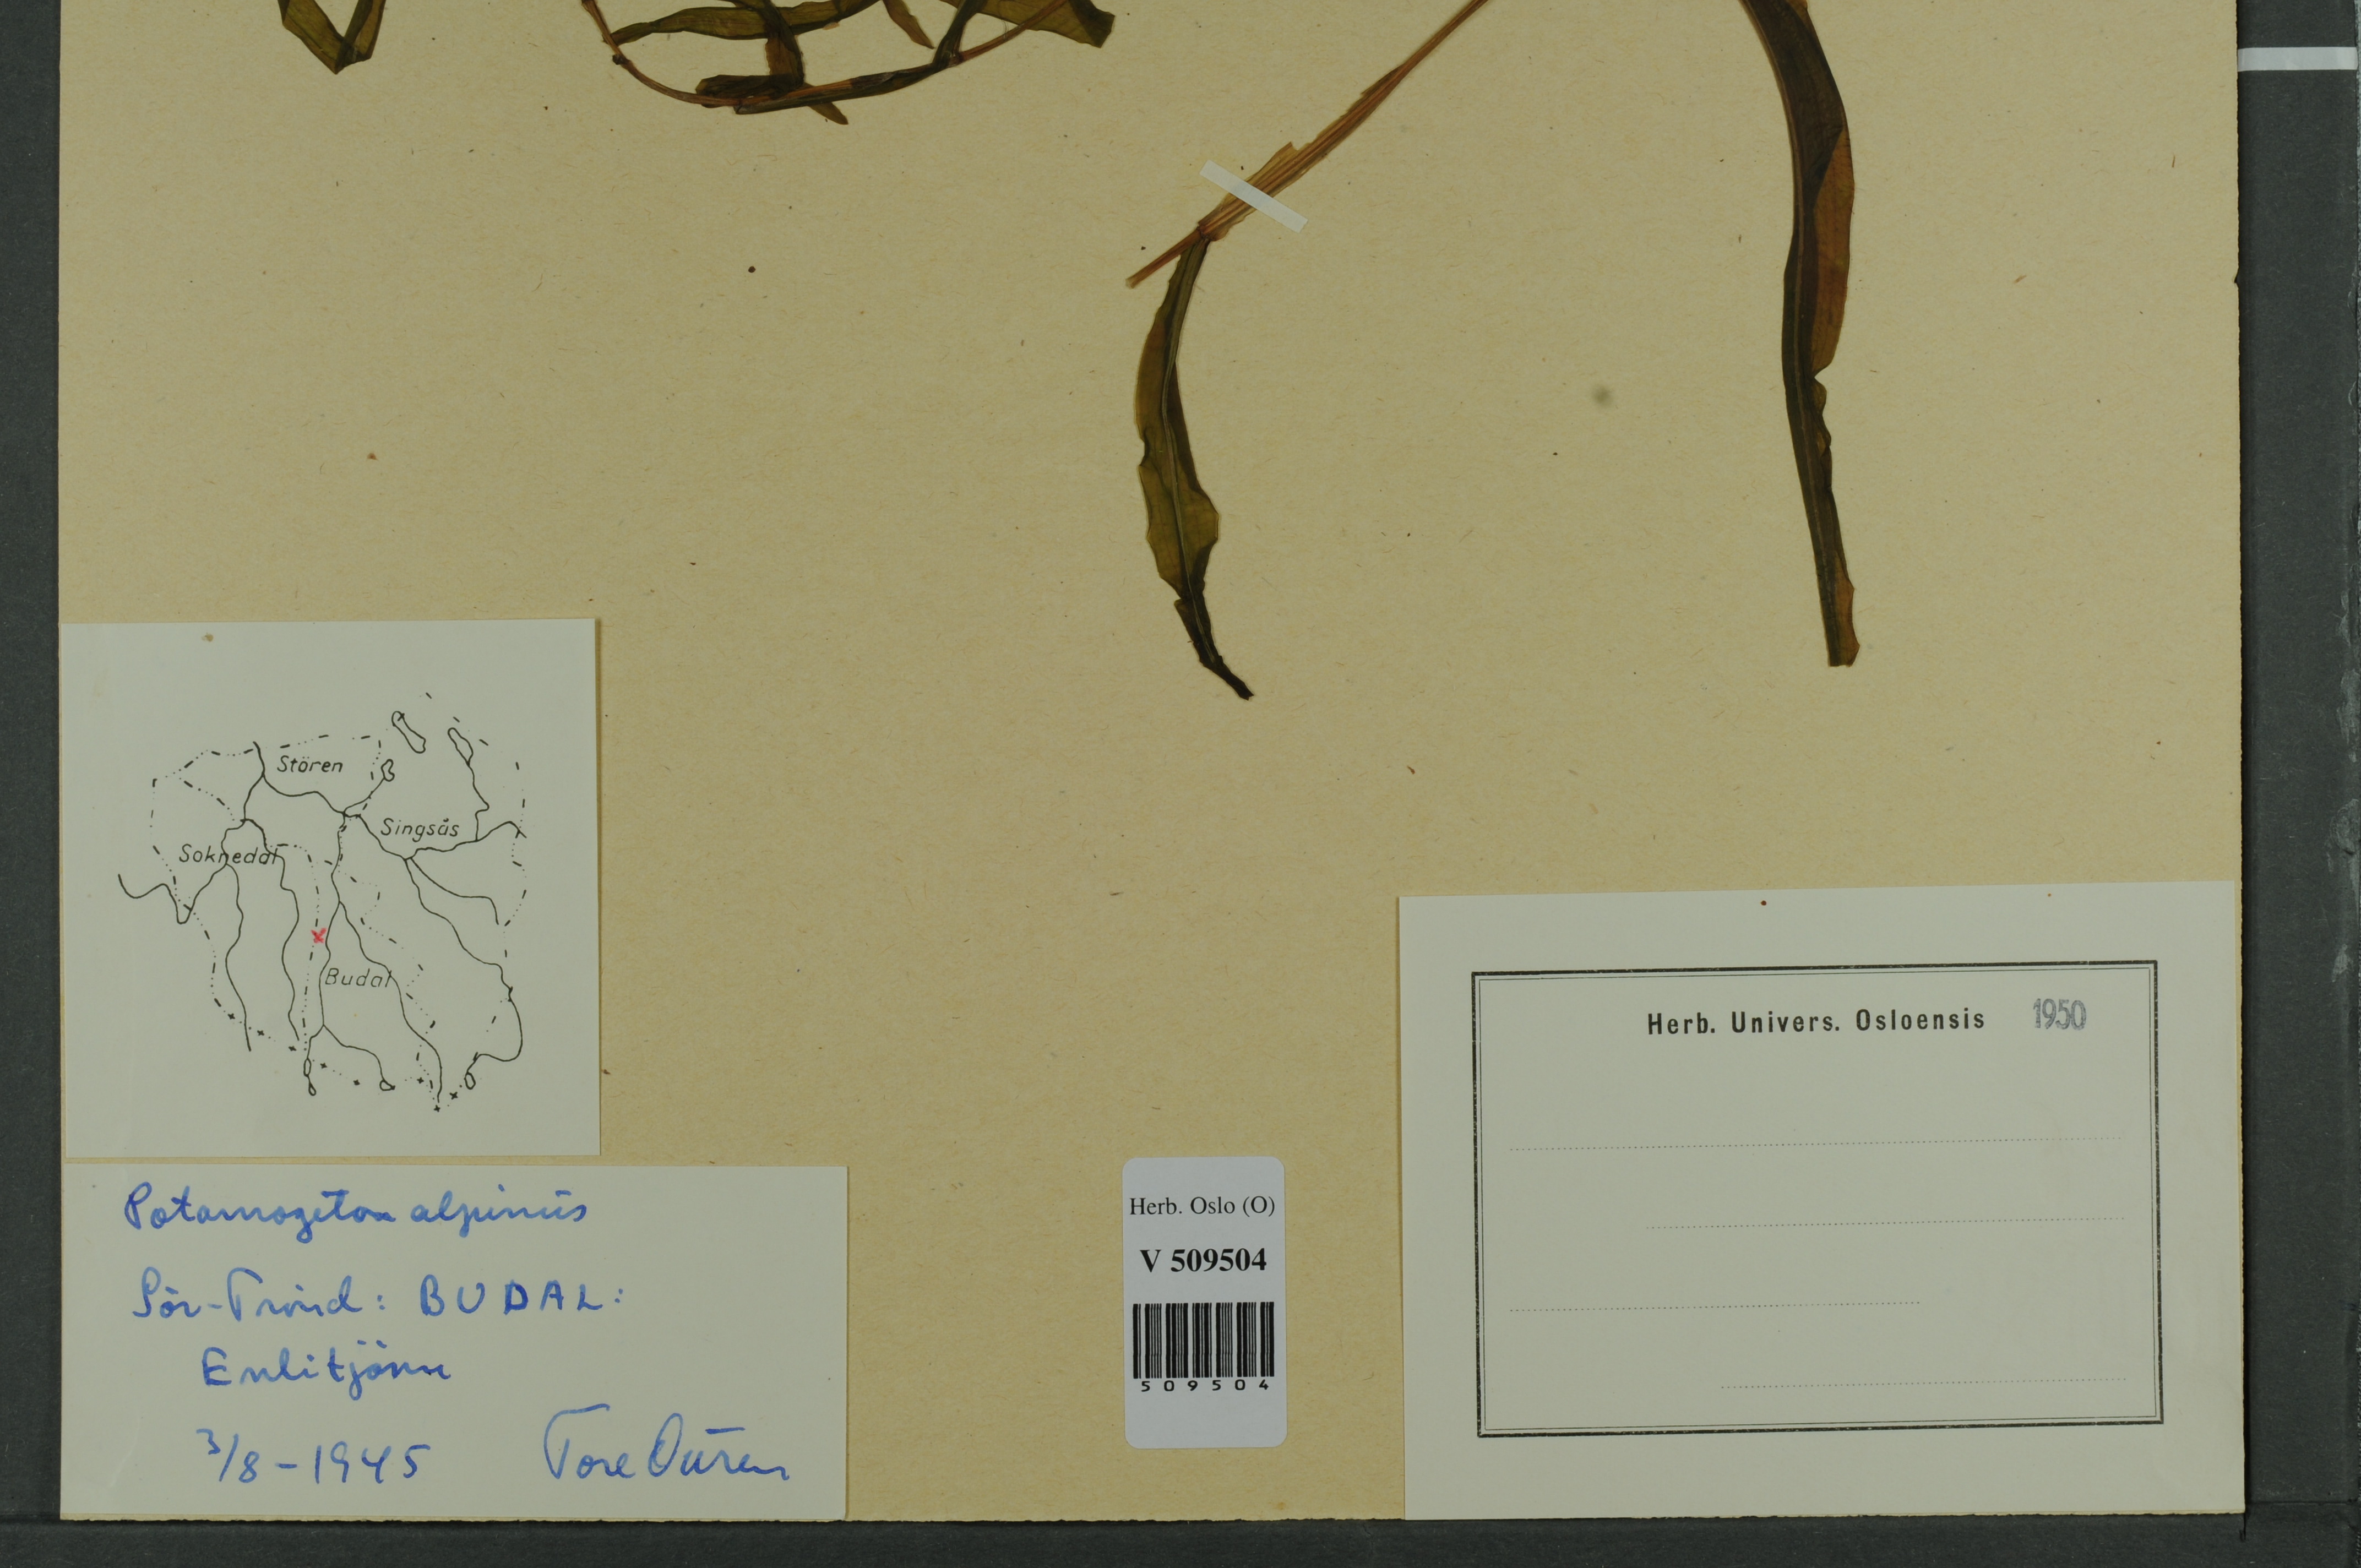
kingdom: Plantae
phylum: Tracheophyta
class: Liliopsida
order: Alismatales
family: Potamogetonaceae
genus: Potamogeton
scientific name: Potamogeton alpinus
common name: Red pondweed
